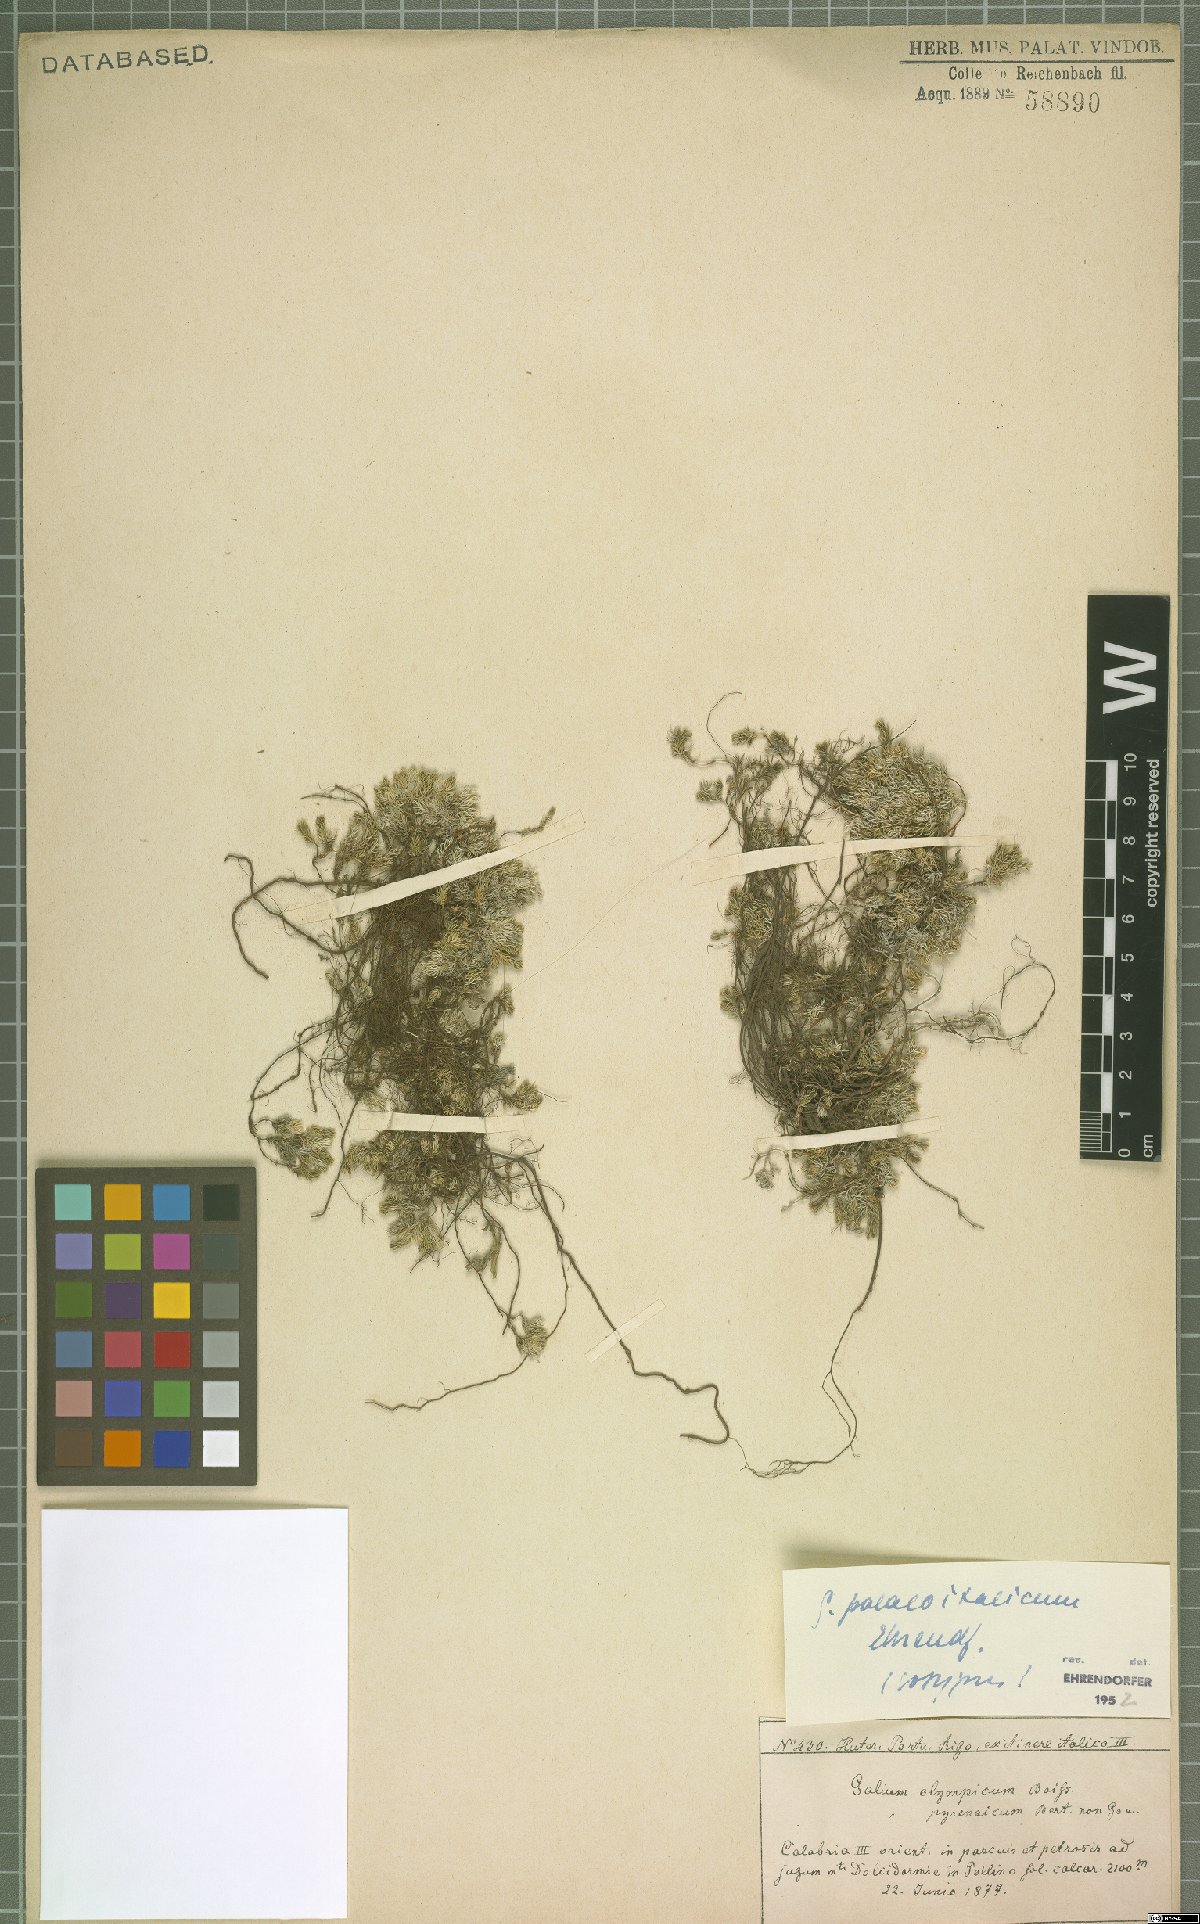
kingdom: Plantae
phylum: Tracheophyta
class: Magnoliopsida
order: Gentianales
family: Rubiaceae
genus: Galium
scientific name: Galium palaeoitalicum
